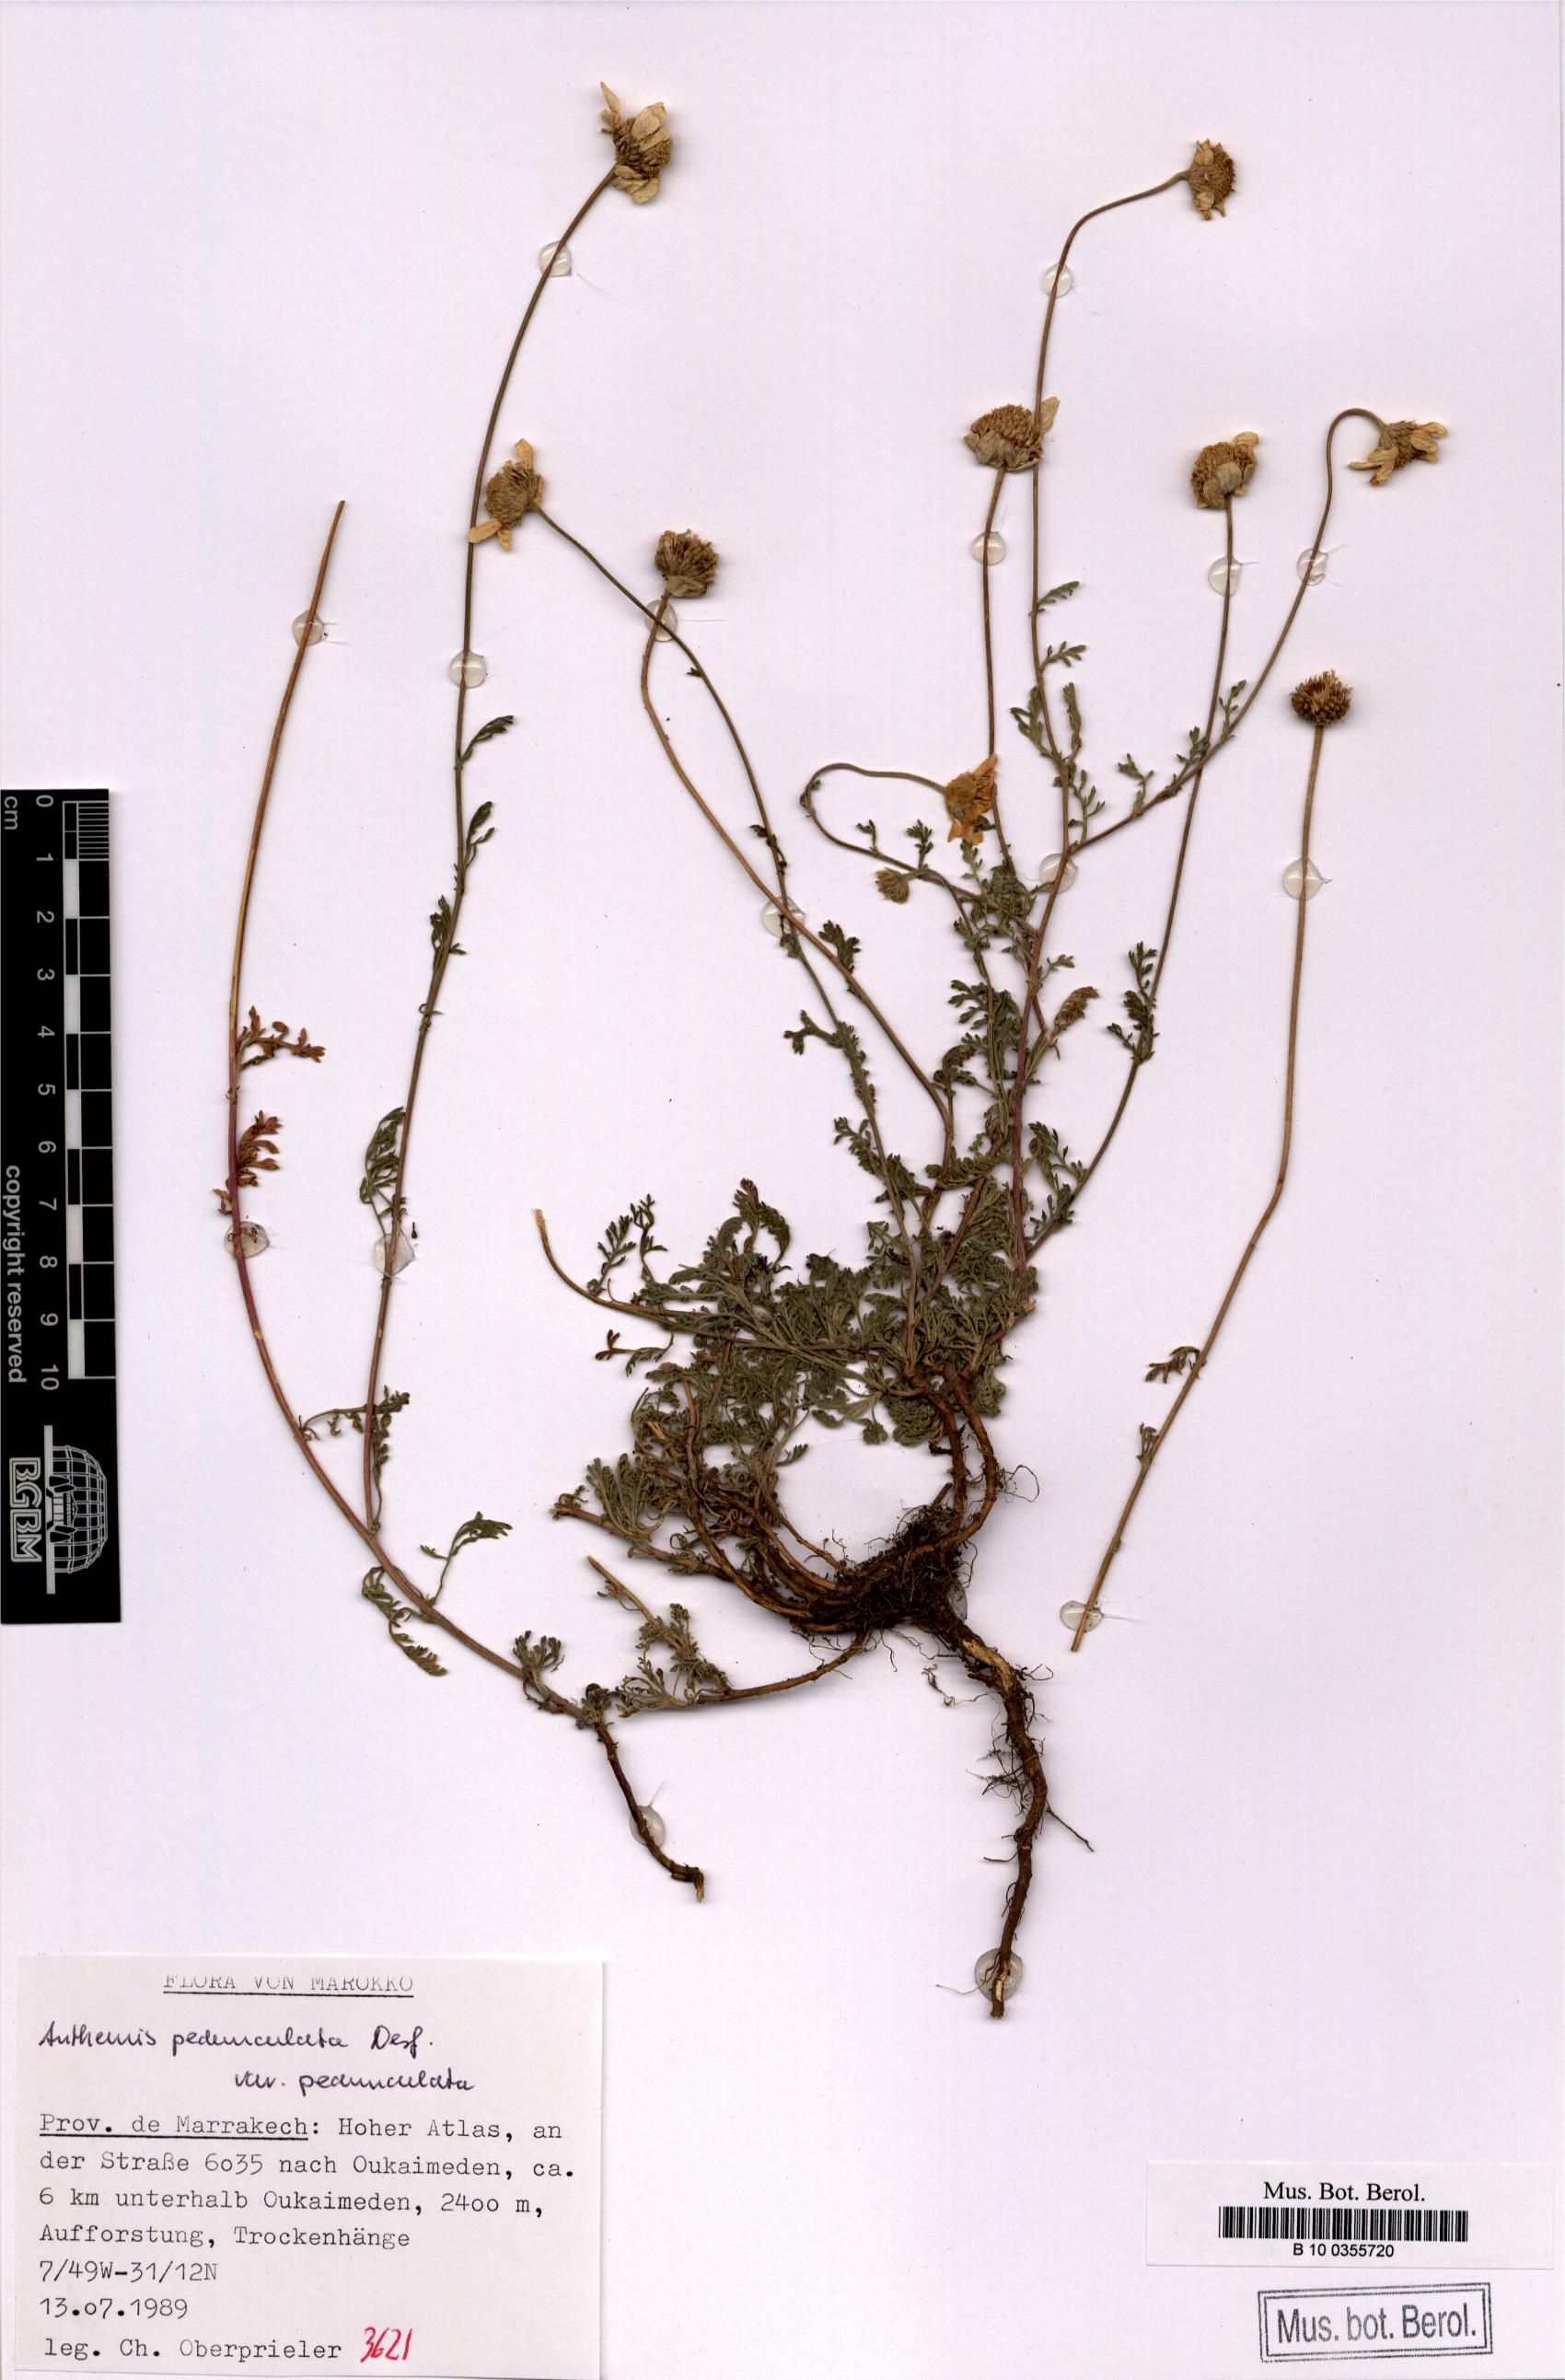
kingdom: Plantae
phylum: Tracheophyta
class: Magnoliopsida
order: Asterales
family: Asteraceae
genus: Anthemis
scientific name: Anthemis pedunculata
